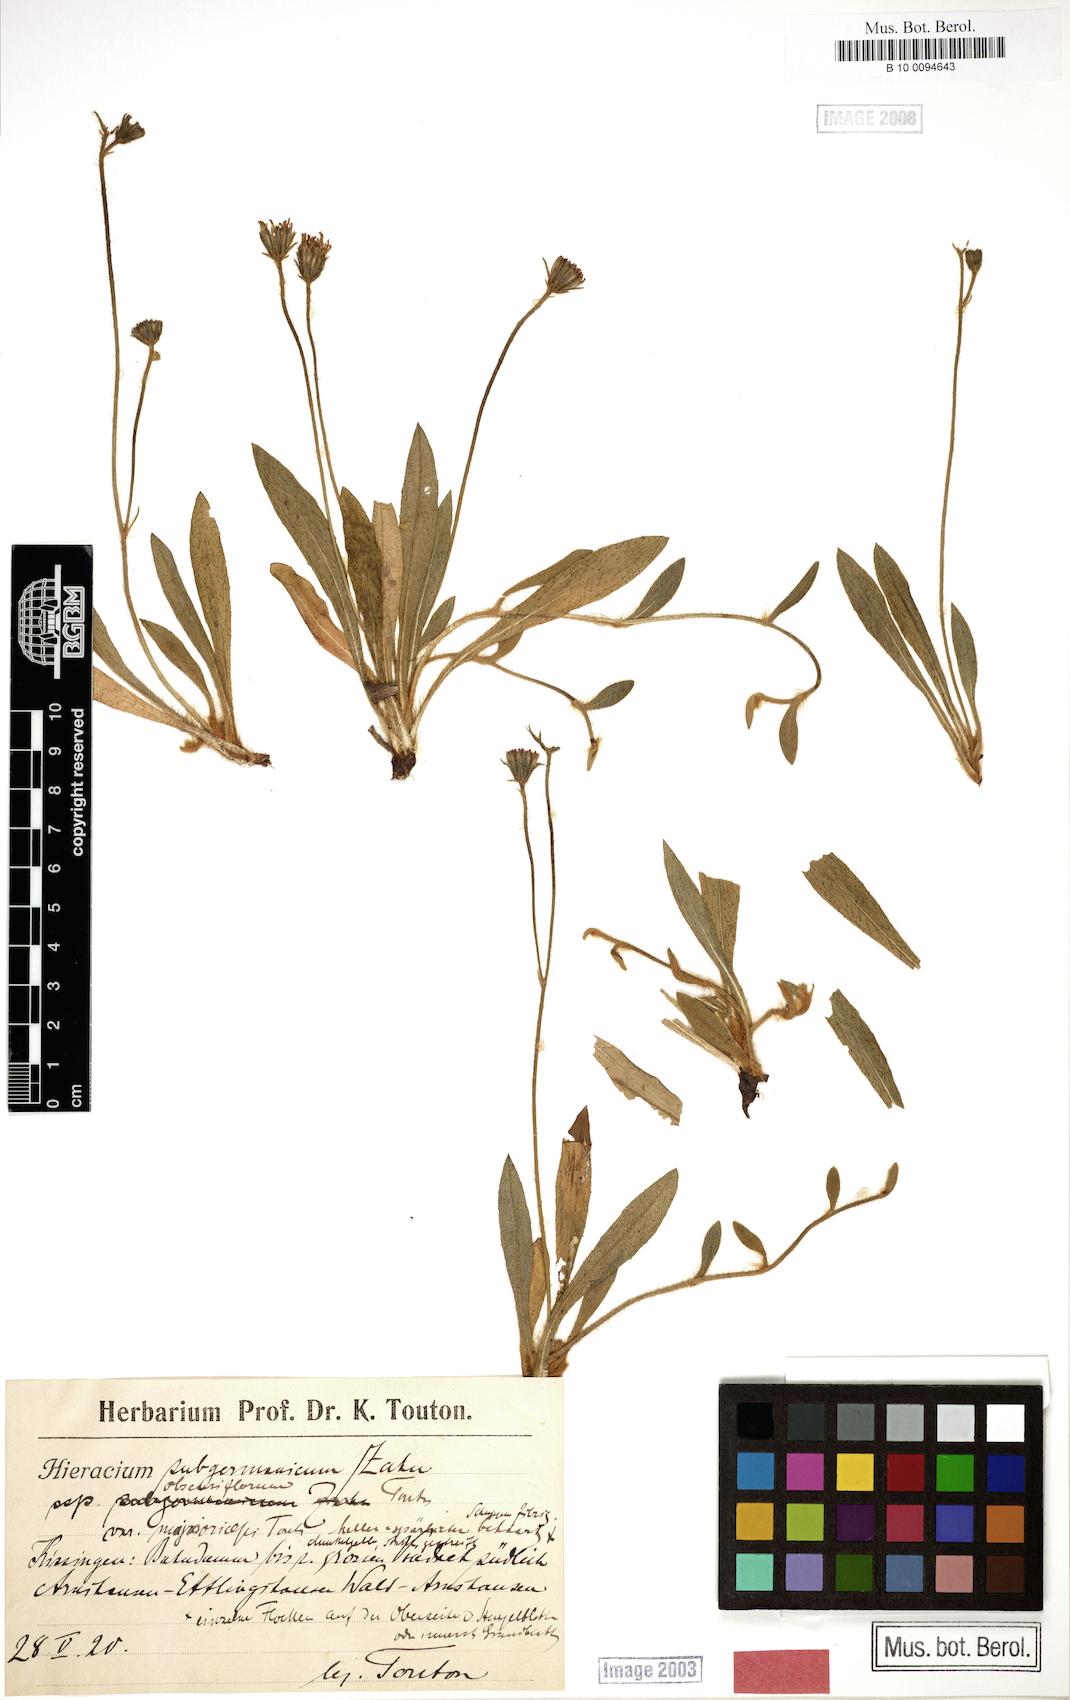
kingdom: Plantae
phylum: Tracheophyta
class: Magnoliopsida
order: Asterales
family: Asteraceae
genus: Hieracium
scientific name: Hieracium subgermanicum
